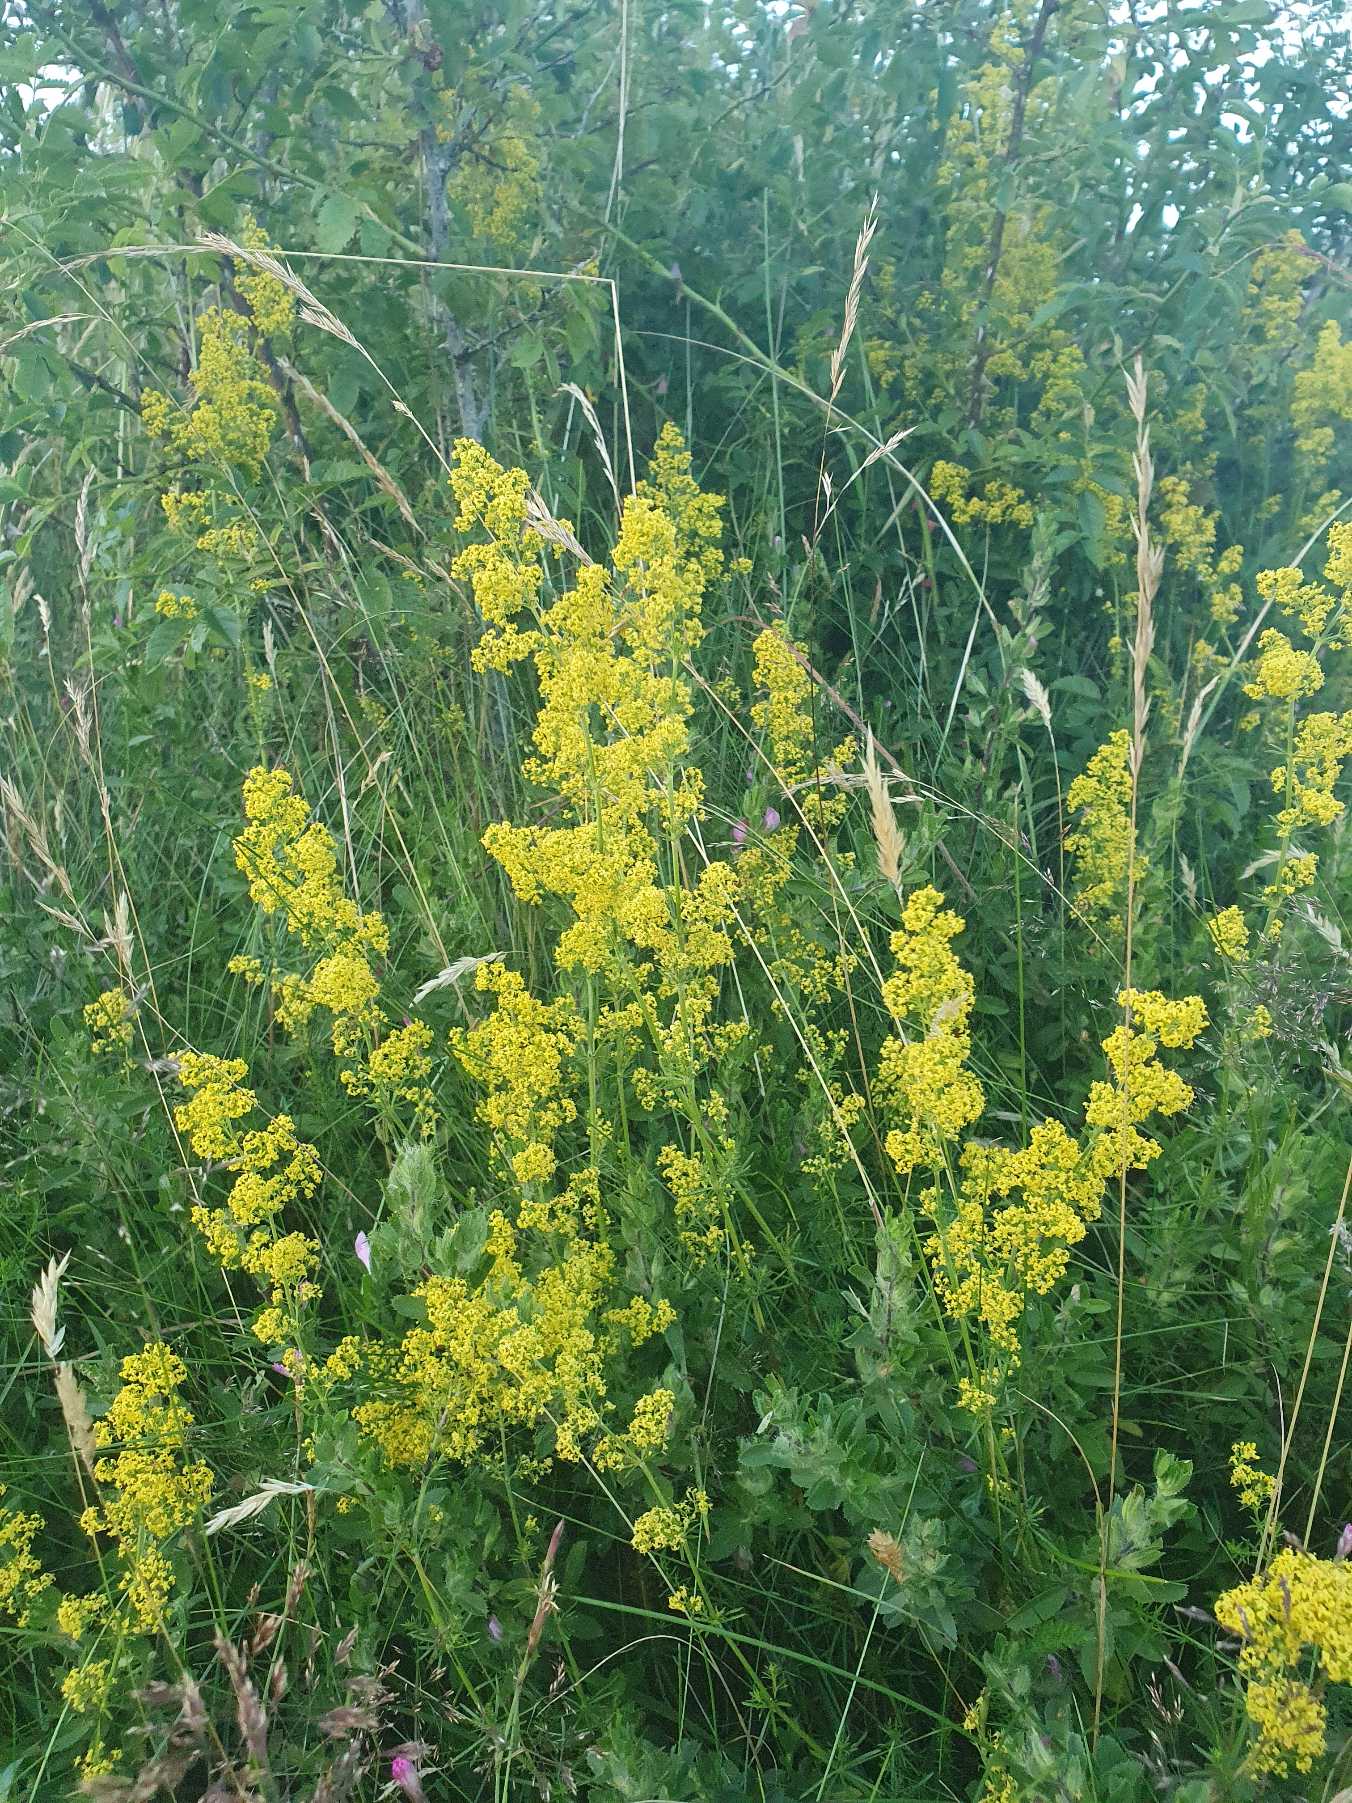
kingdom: Plantae
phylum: Tracheophyta
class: Magnoliopsida
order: Gentianales
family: Rubiaceae
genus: Galium
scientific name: Galium verum
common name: Gul snerre
